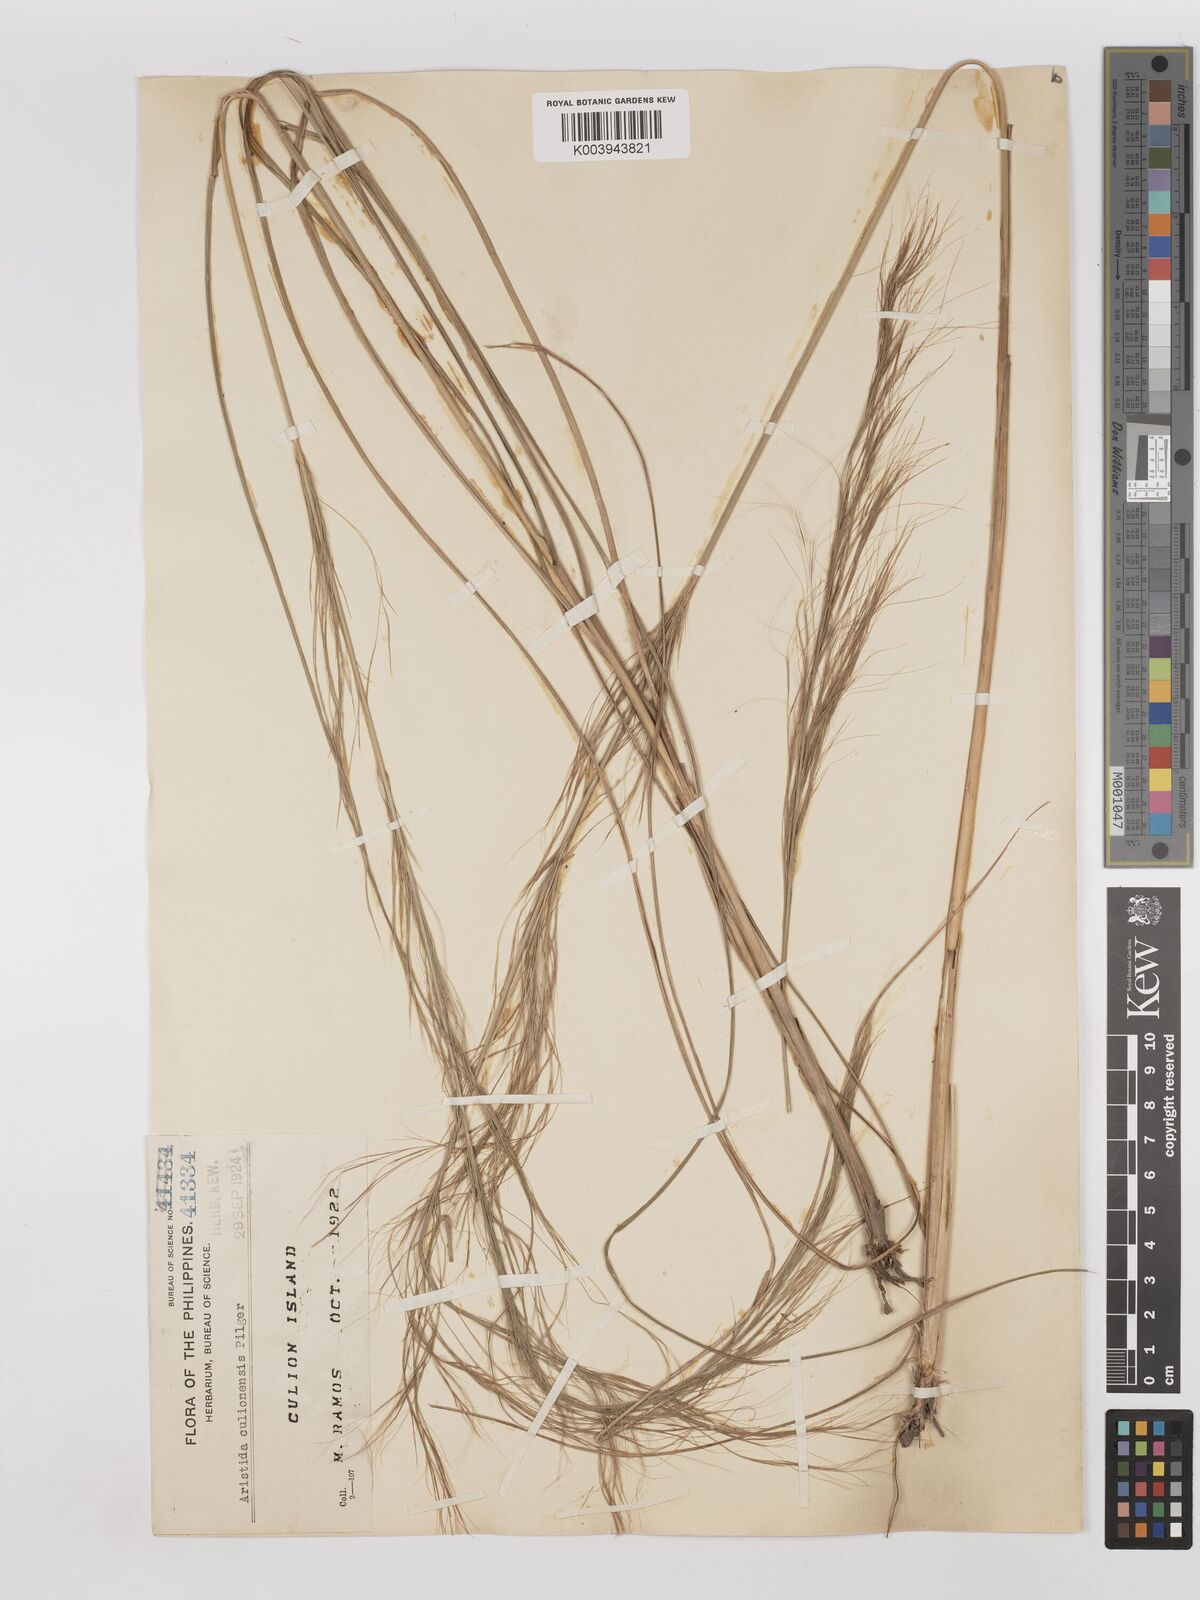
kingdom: Plantae
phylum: Tracheophyta
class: Liliopsida
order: Poales
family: Poaceae
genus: Aristida
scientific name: Aristida culionensis
